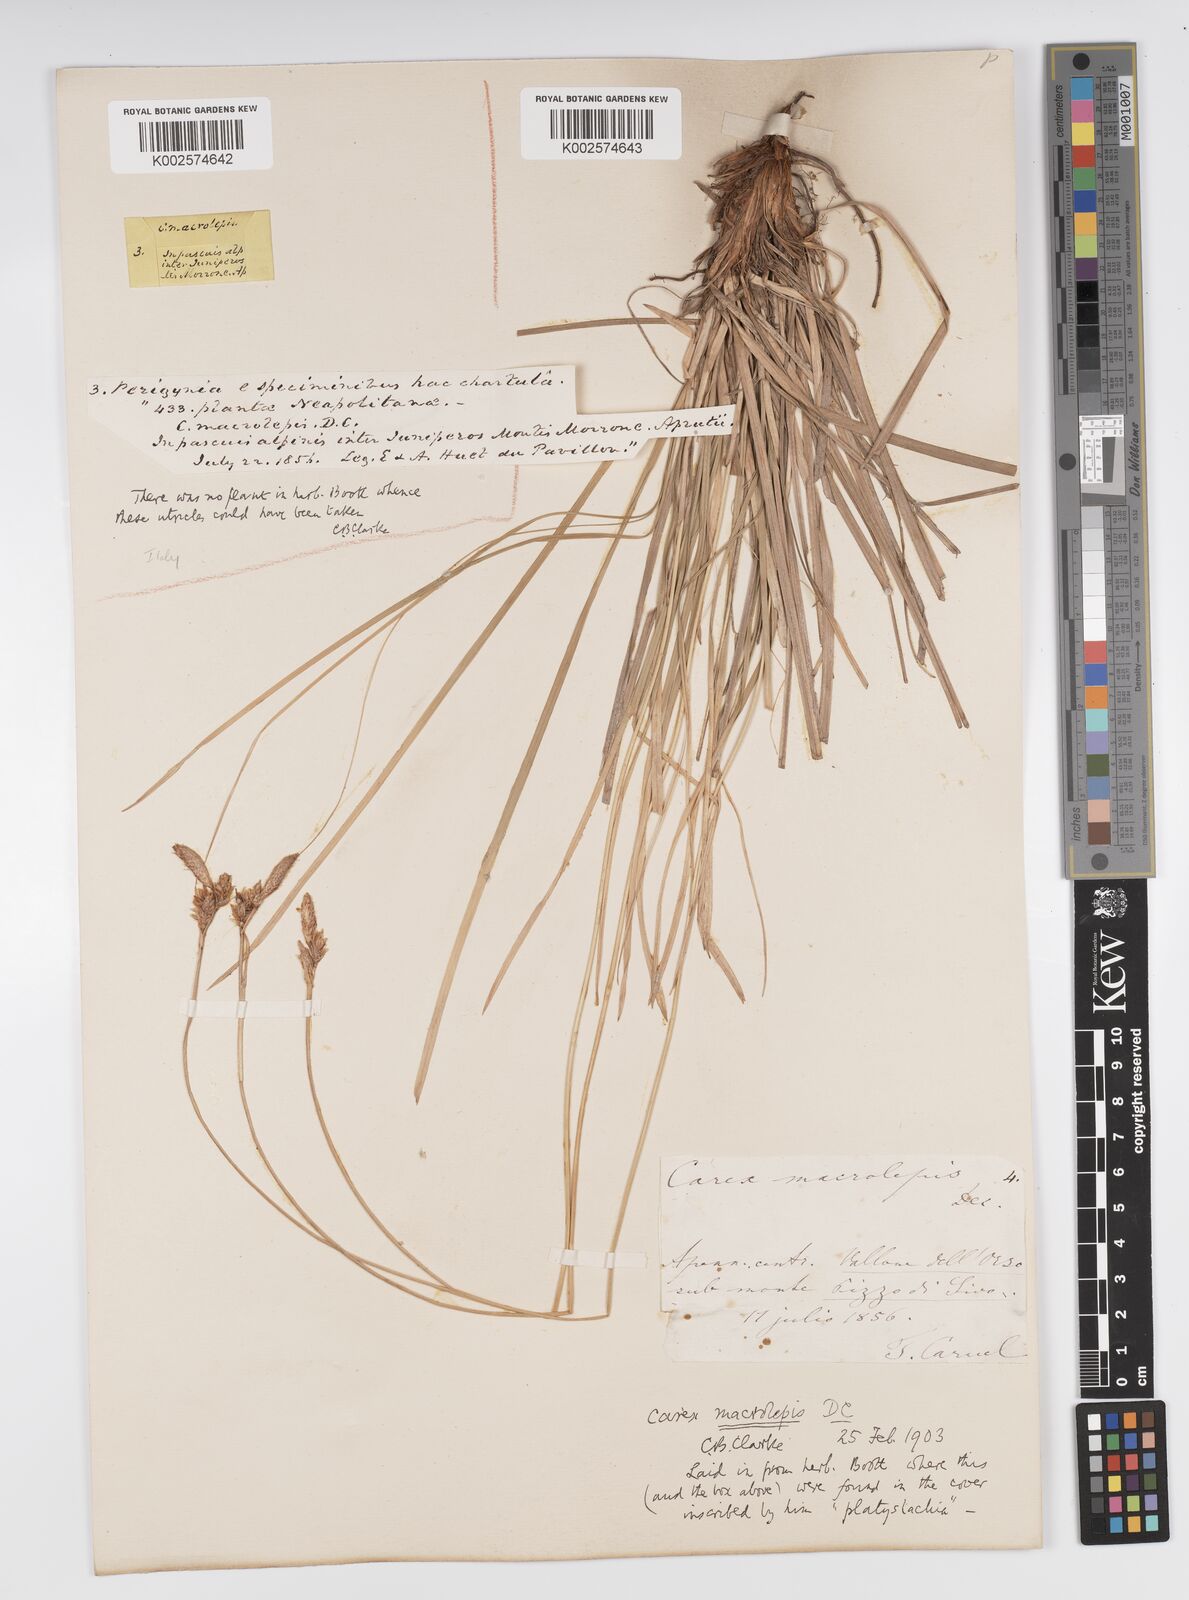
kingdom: Plantae
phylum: Tracheophyta
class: Liliopsida
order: Poales
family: Cyperaceae
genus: Carex
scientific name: Carex macrolepis
